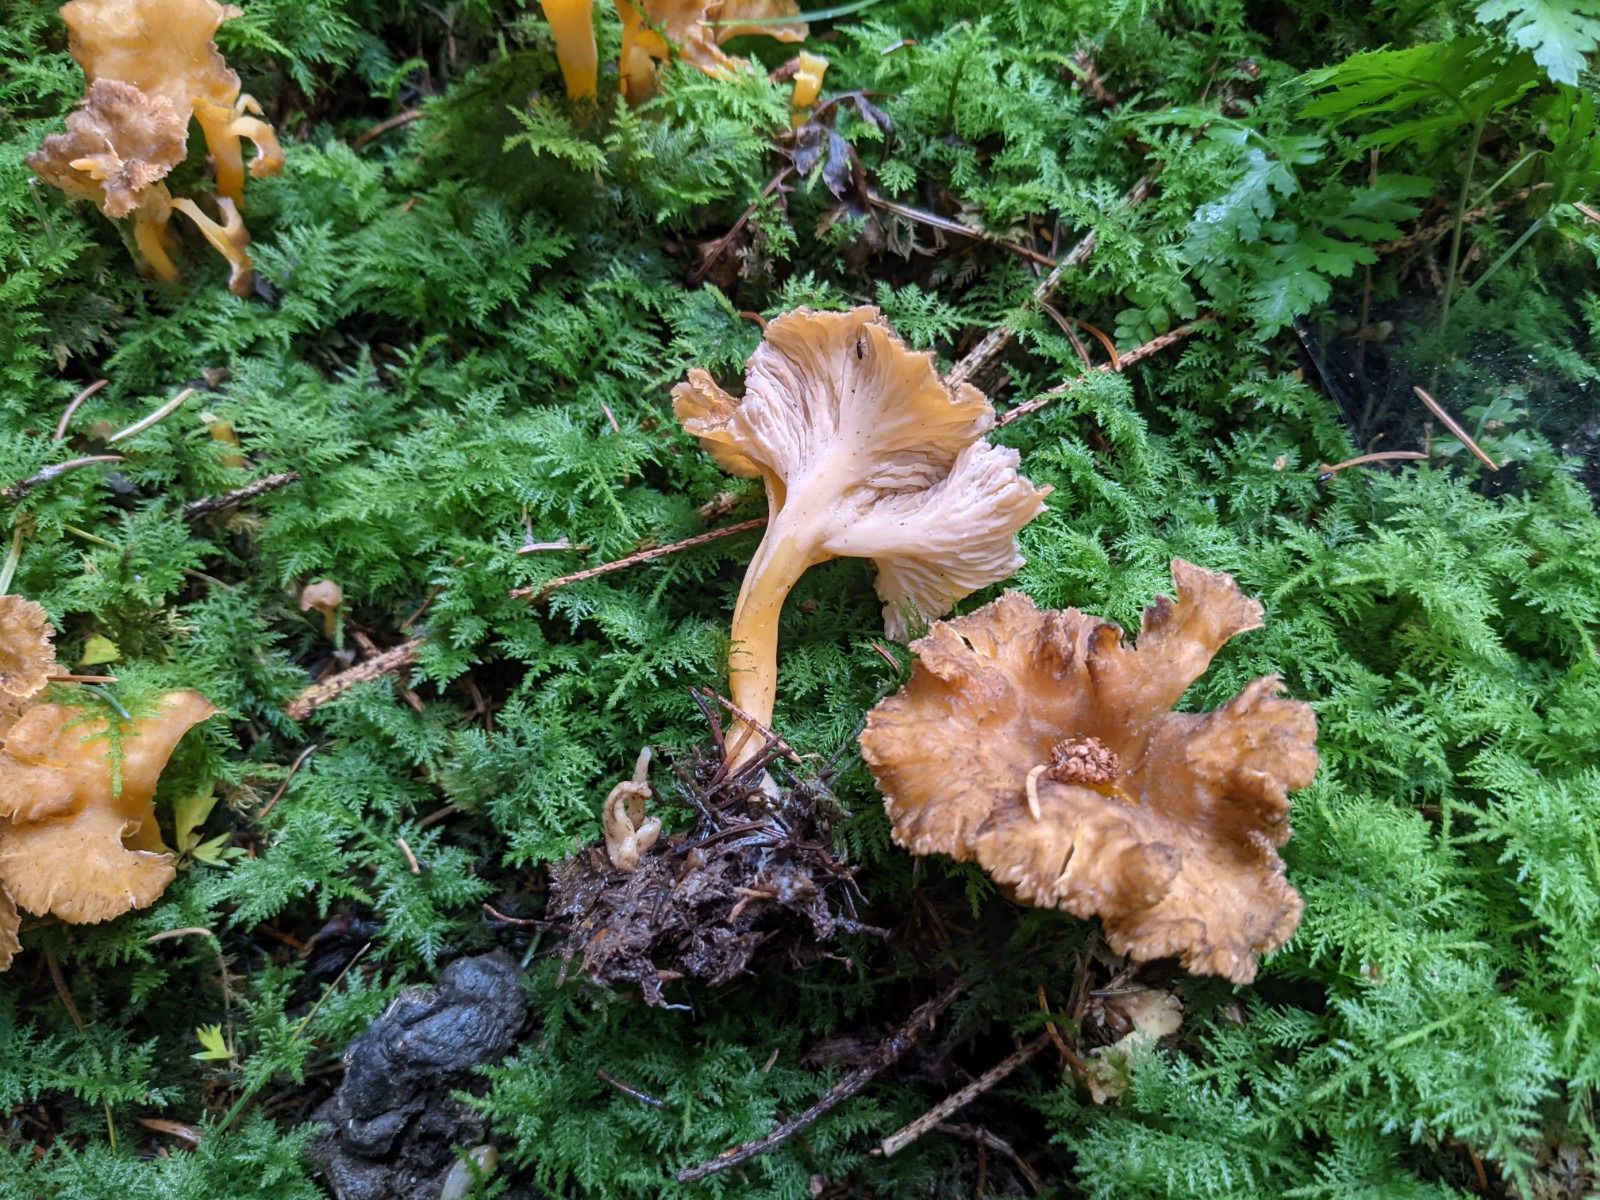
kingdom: Fungi
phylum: Basidiomycota
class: Agaricomycetes
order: Cantharellales
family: Hydnaceae
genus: Craterellus
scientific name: Craterellus lutescens
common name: gylden kantarel
